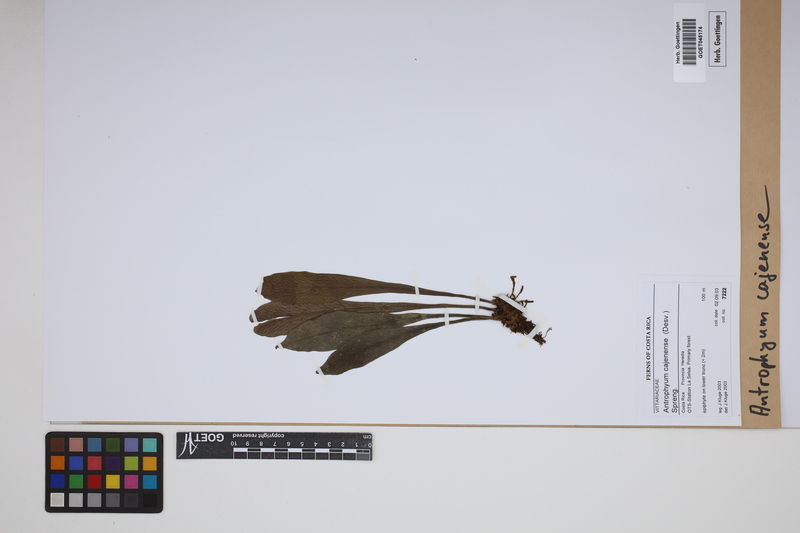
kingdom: Plantae
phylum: Tracheophyta
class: Polypodiopsida
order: Polypodiales
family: Pteridaceae
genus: Polytaenium
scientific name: Polytaenium cajenense
